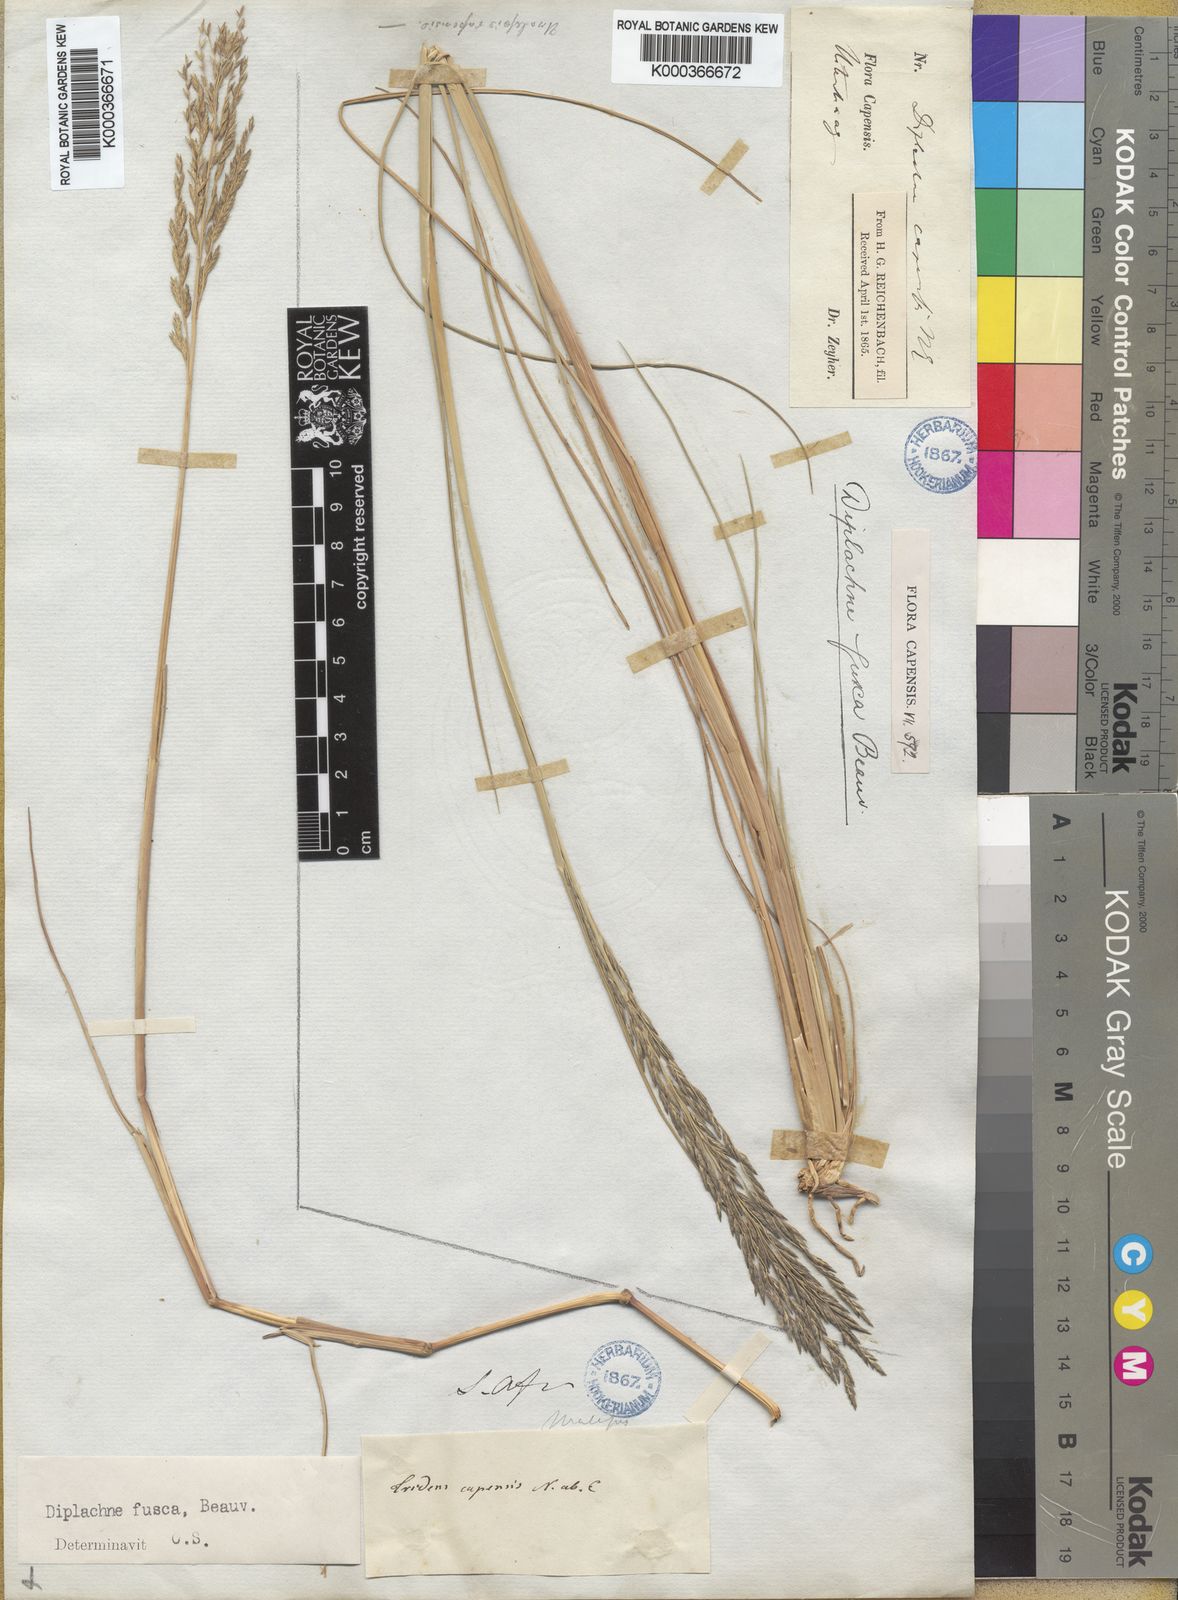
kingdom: Plantae
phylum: Tracheophyta
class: Liliopsida
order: Poales
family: Poaceae
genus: Diplachne
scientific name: Diplachne fusca
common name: Brown beetle grass
